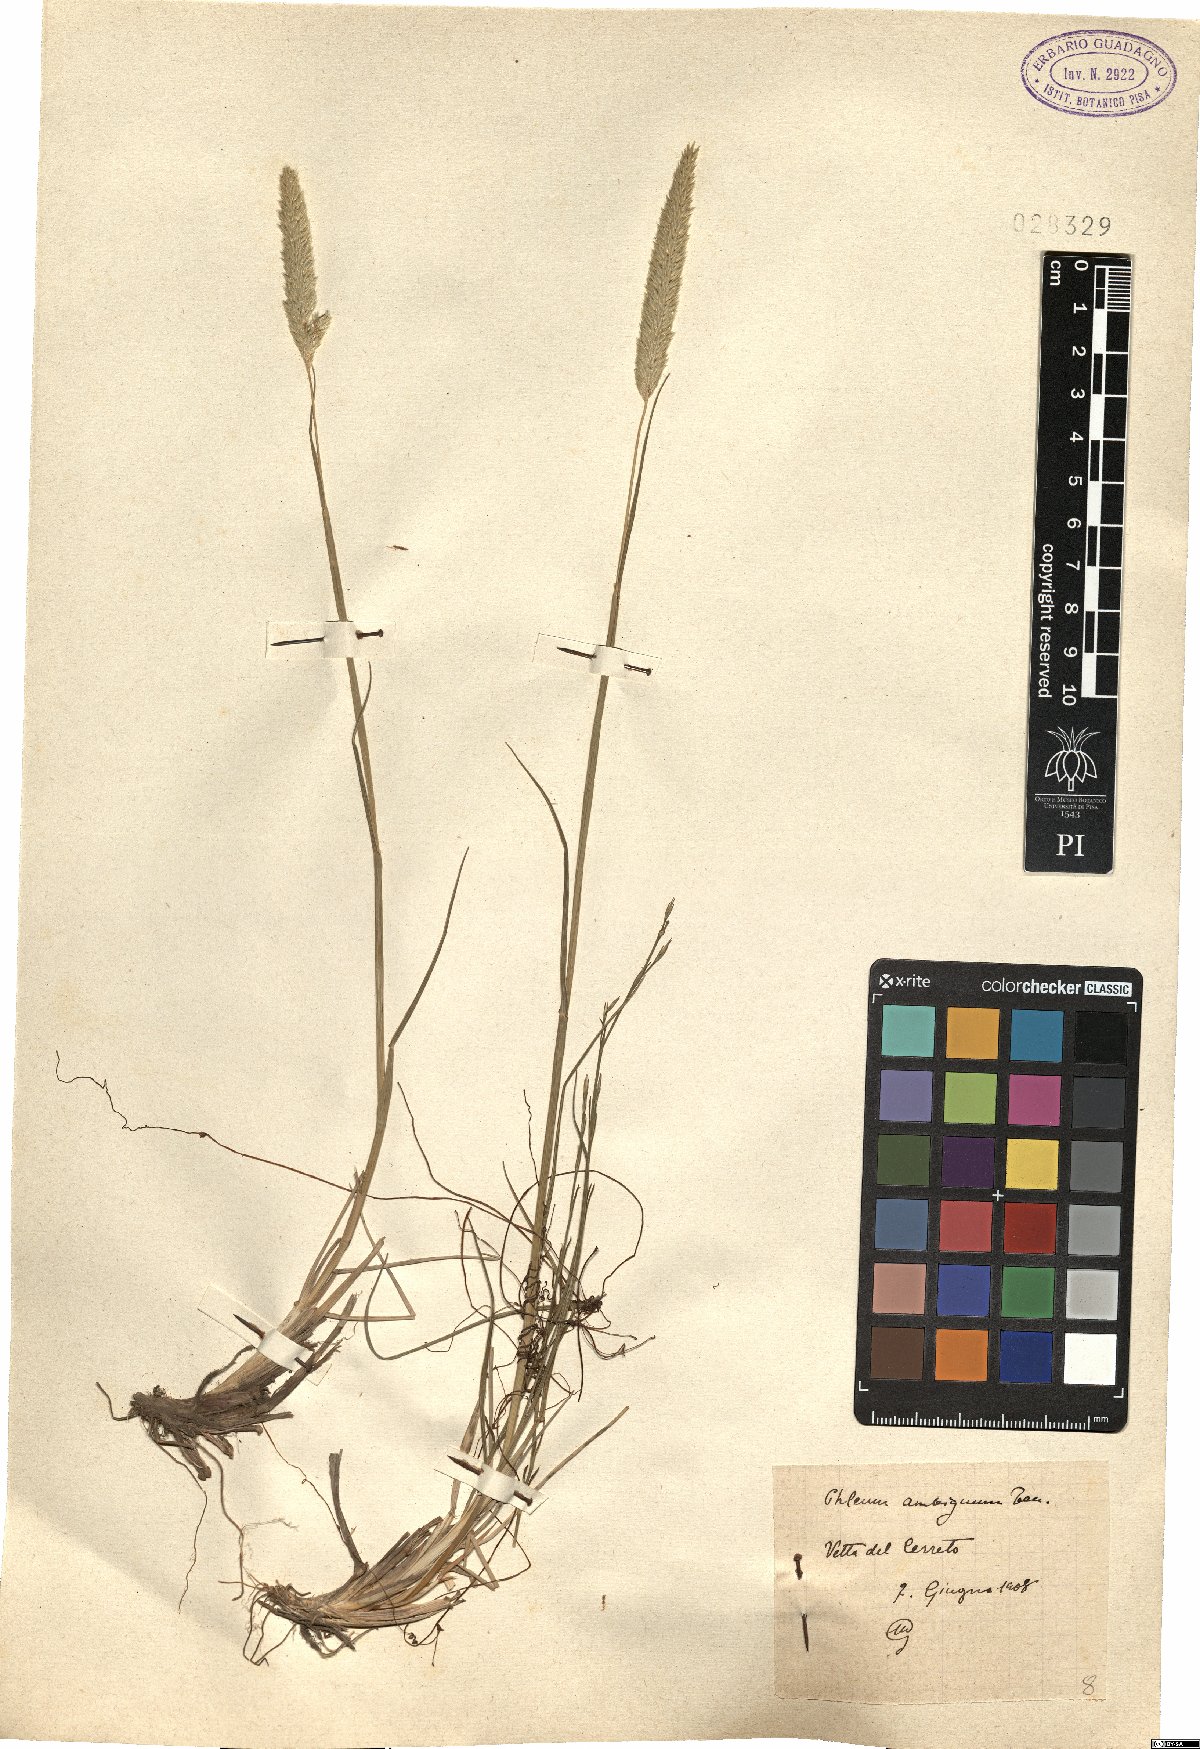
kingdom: Plantae
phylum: Tracheophyta
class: Liliopsida
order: Poales
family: Poaceae
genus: Phleum
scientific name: Phleum hirsutum
